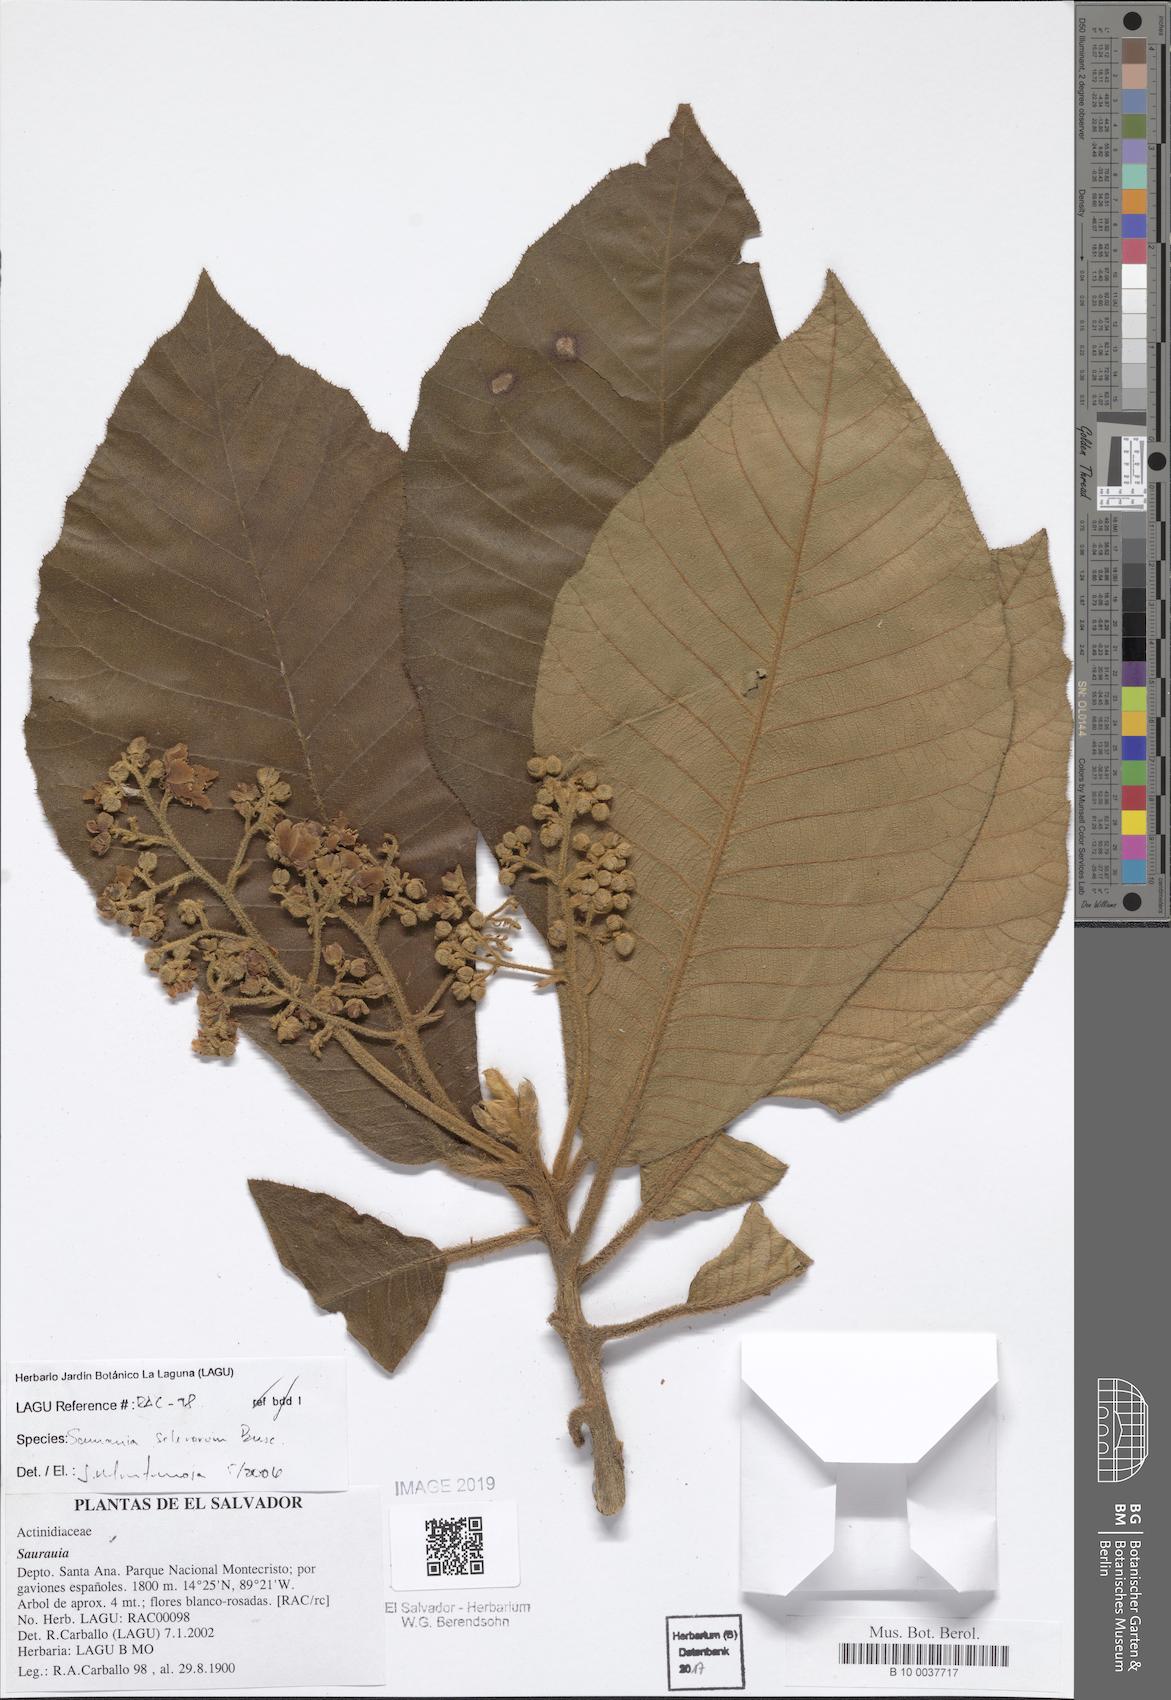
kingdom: Plantae
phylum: Tracheophyta
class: Magnoliopsida
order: Ericales
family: Actinidiaceae
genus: Saurauia
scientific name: Saurauia selerorum
